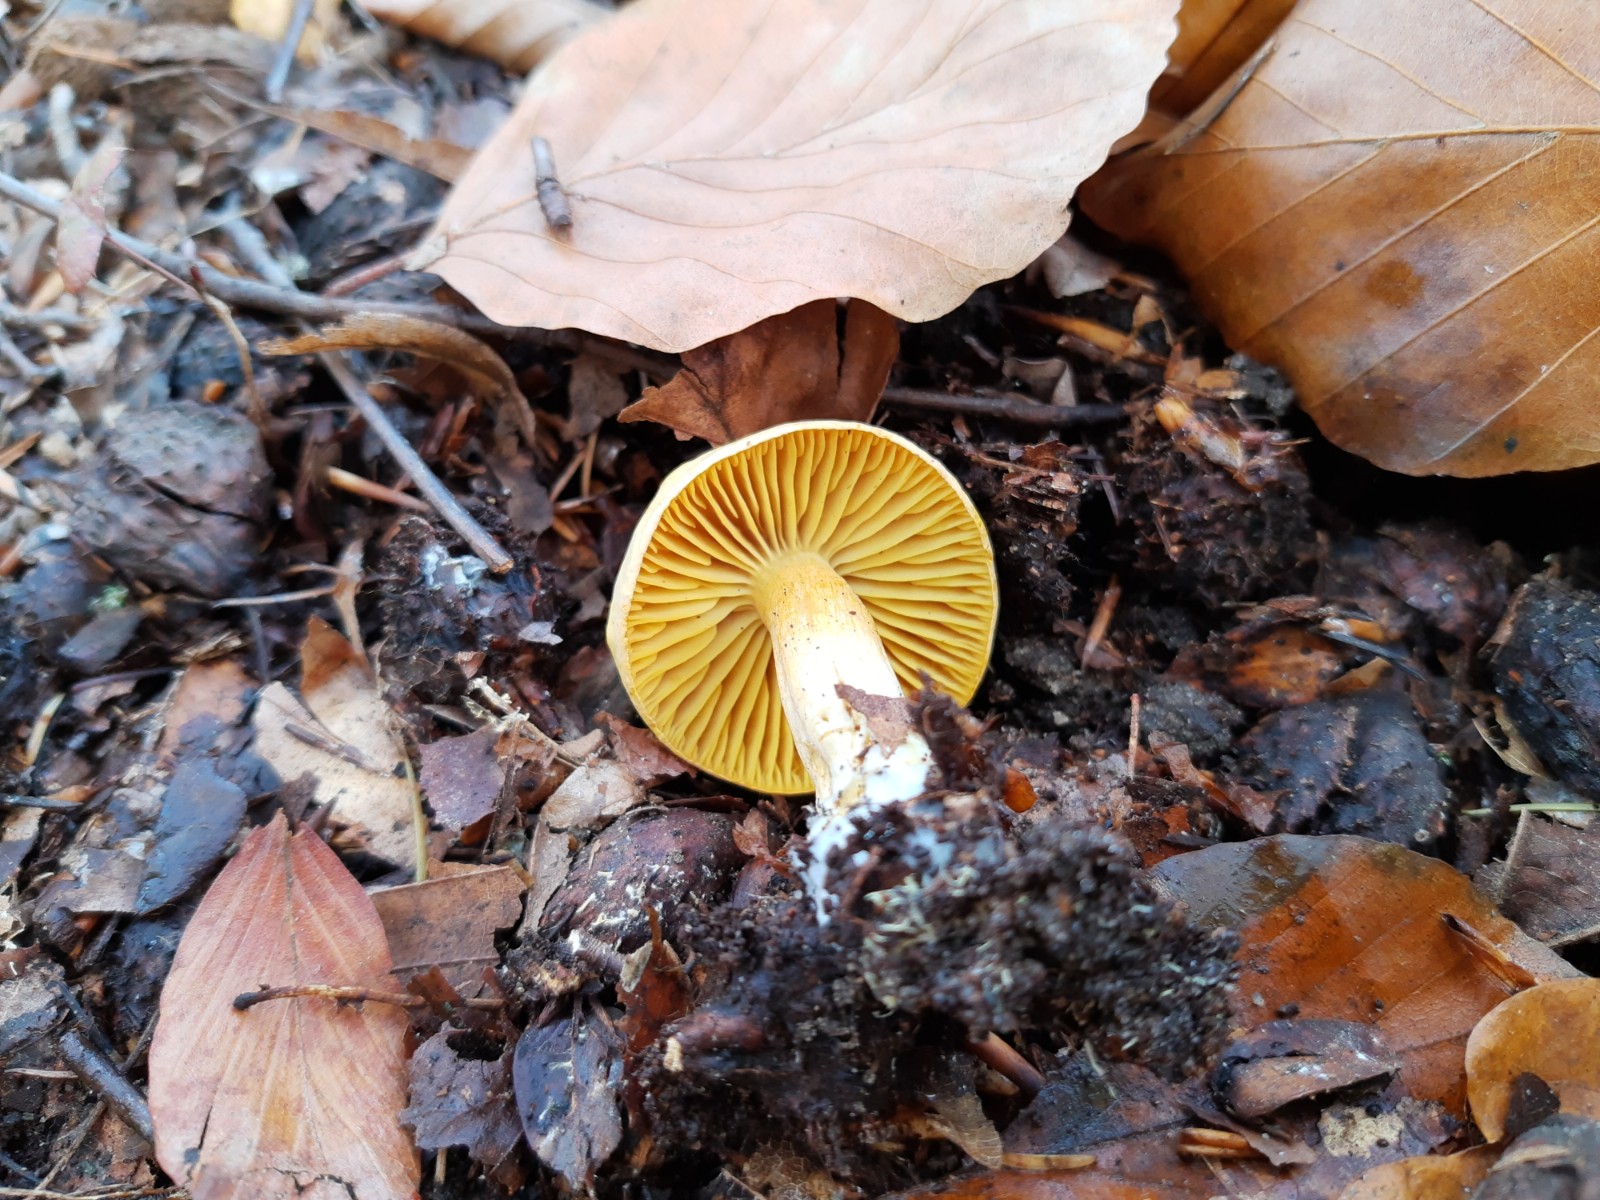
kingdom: Fungi
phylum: Basidiomycota
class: Agaricomycetes
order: Agaricales
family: Tricholomataceae
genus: Tricholoma
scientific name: Tricholoma sulphureum
